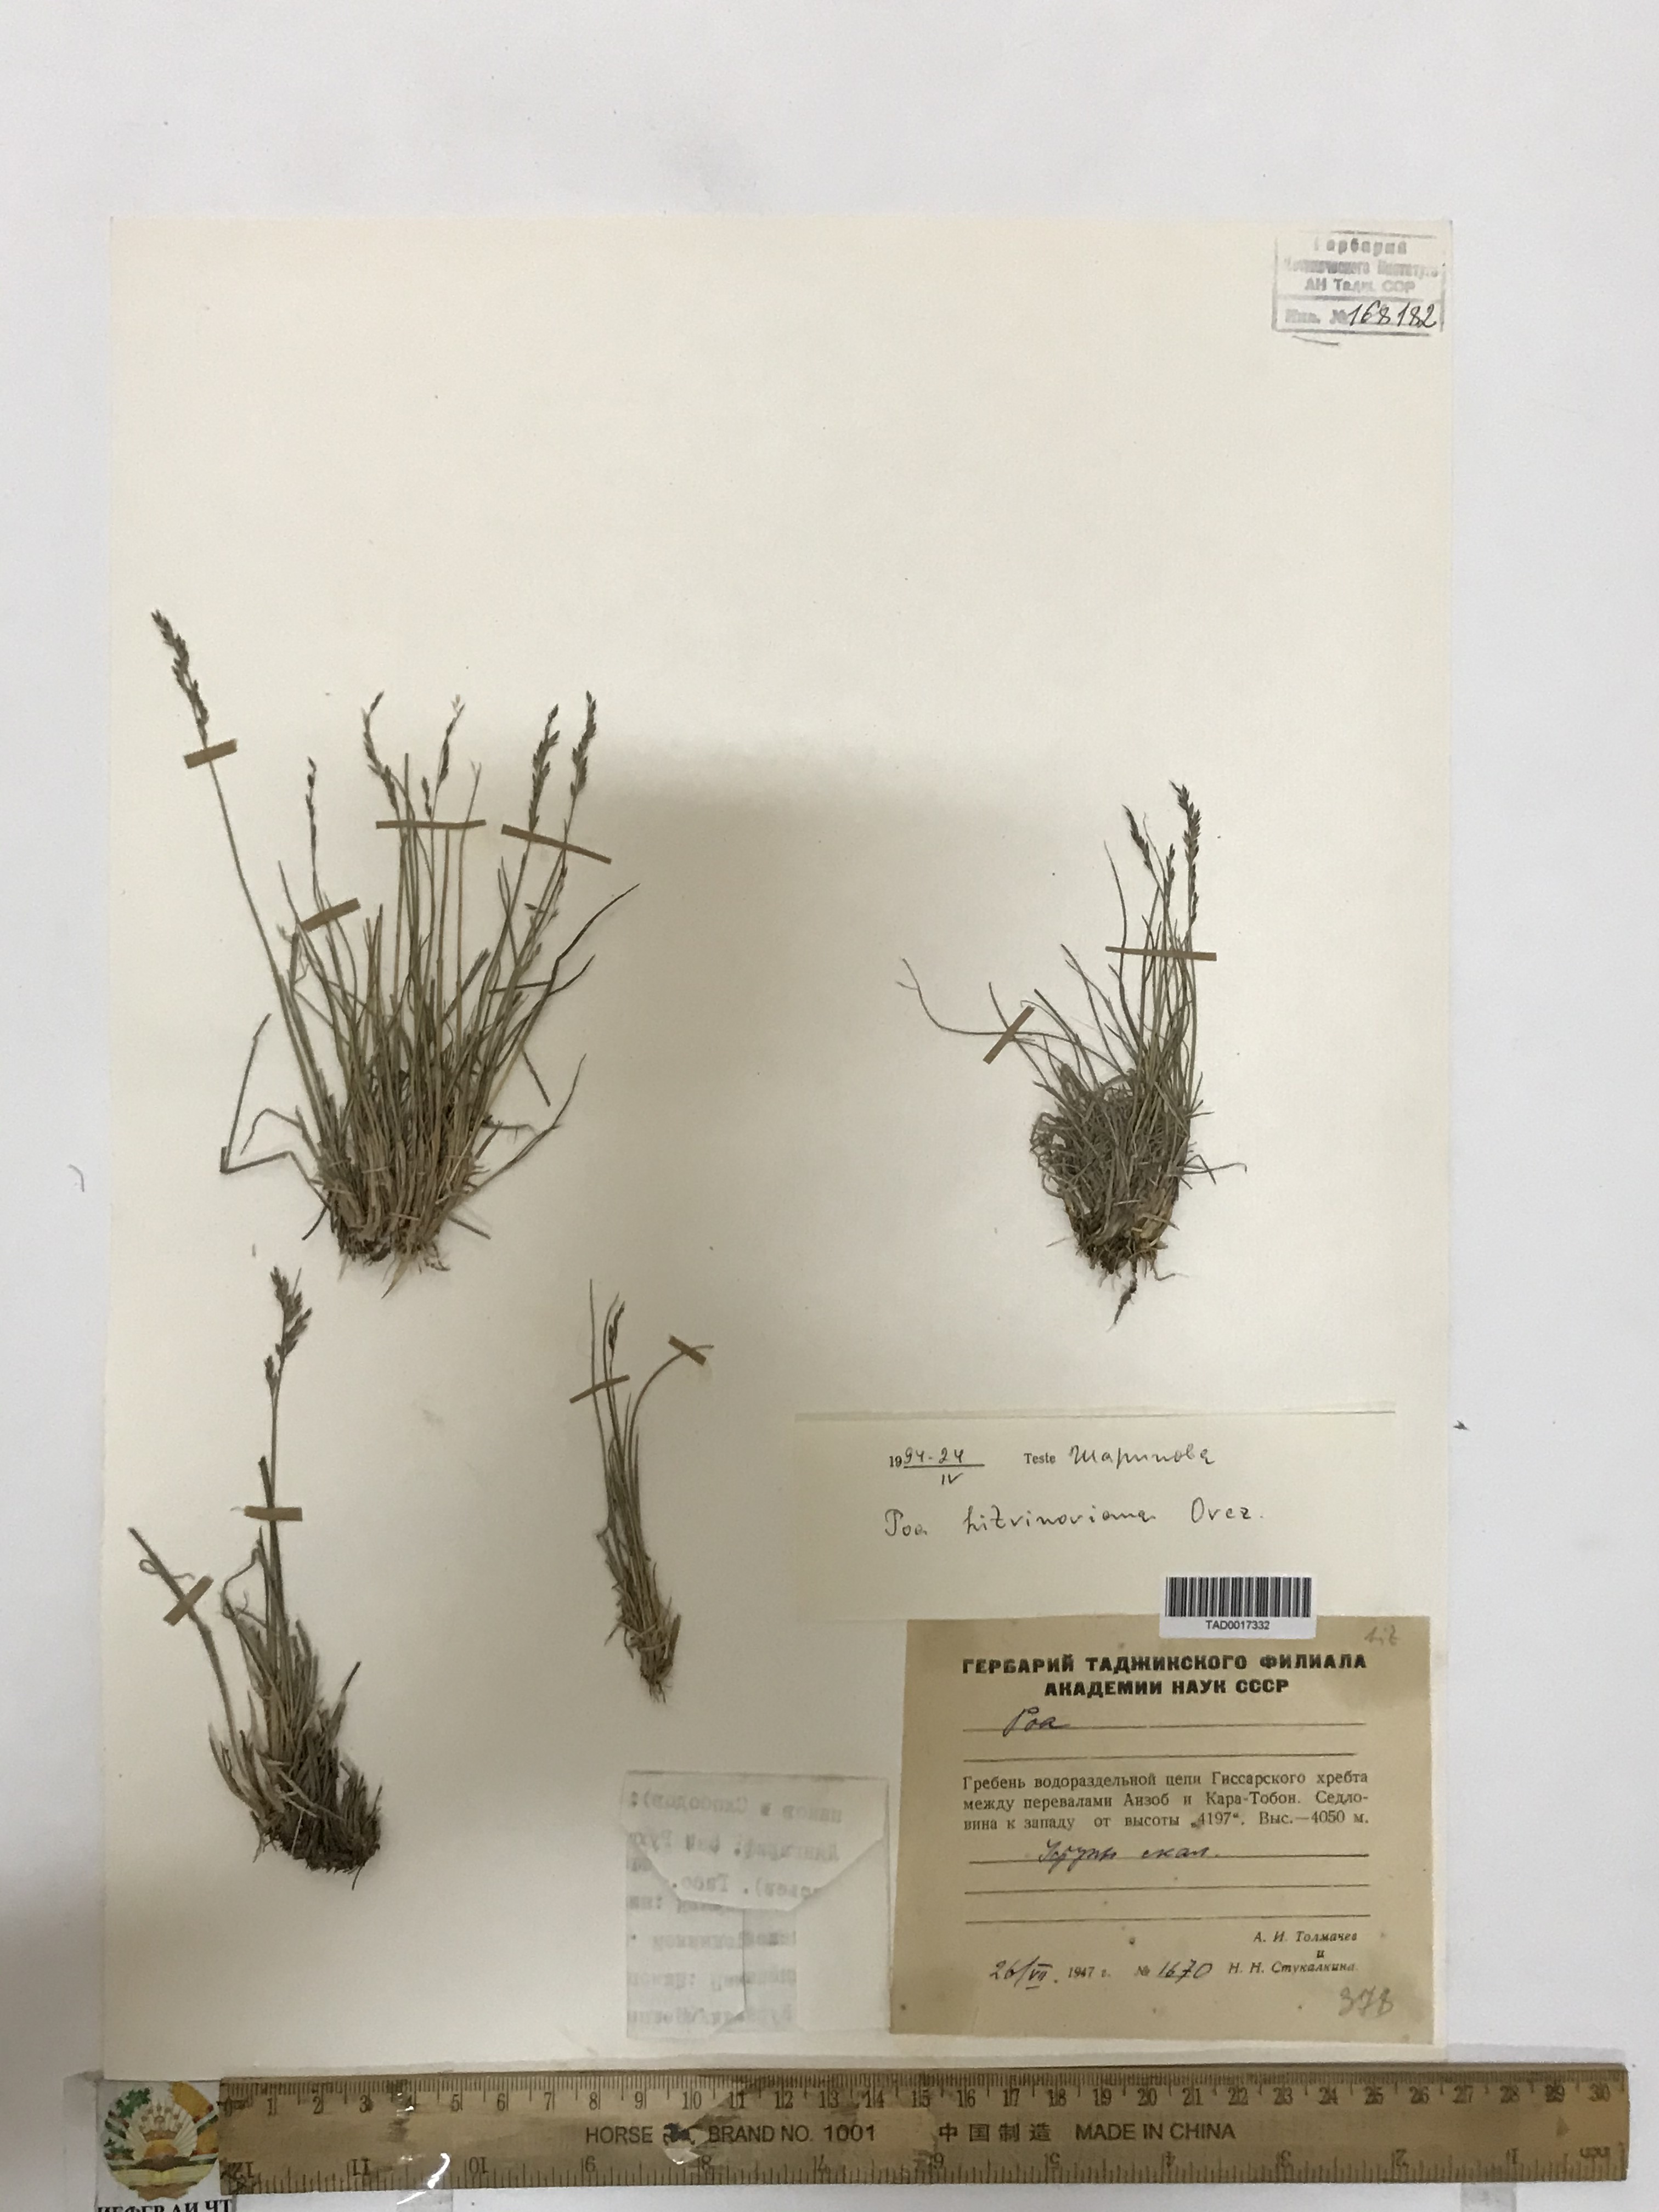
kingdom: Plantae
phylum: Tracheophyta
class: Liliopsida
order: Poales
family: Poaceae
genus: Poa
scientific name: Poa glauca
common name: Glaucous bluegrass
